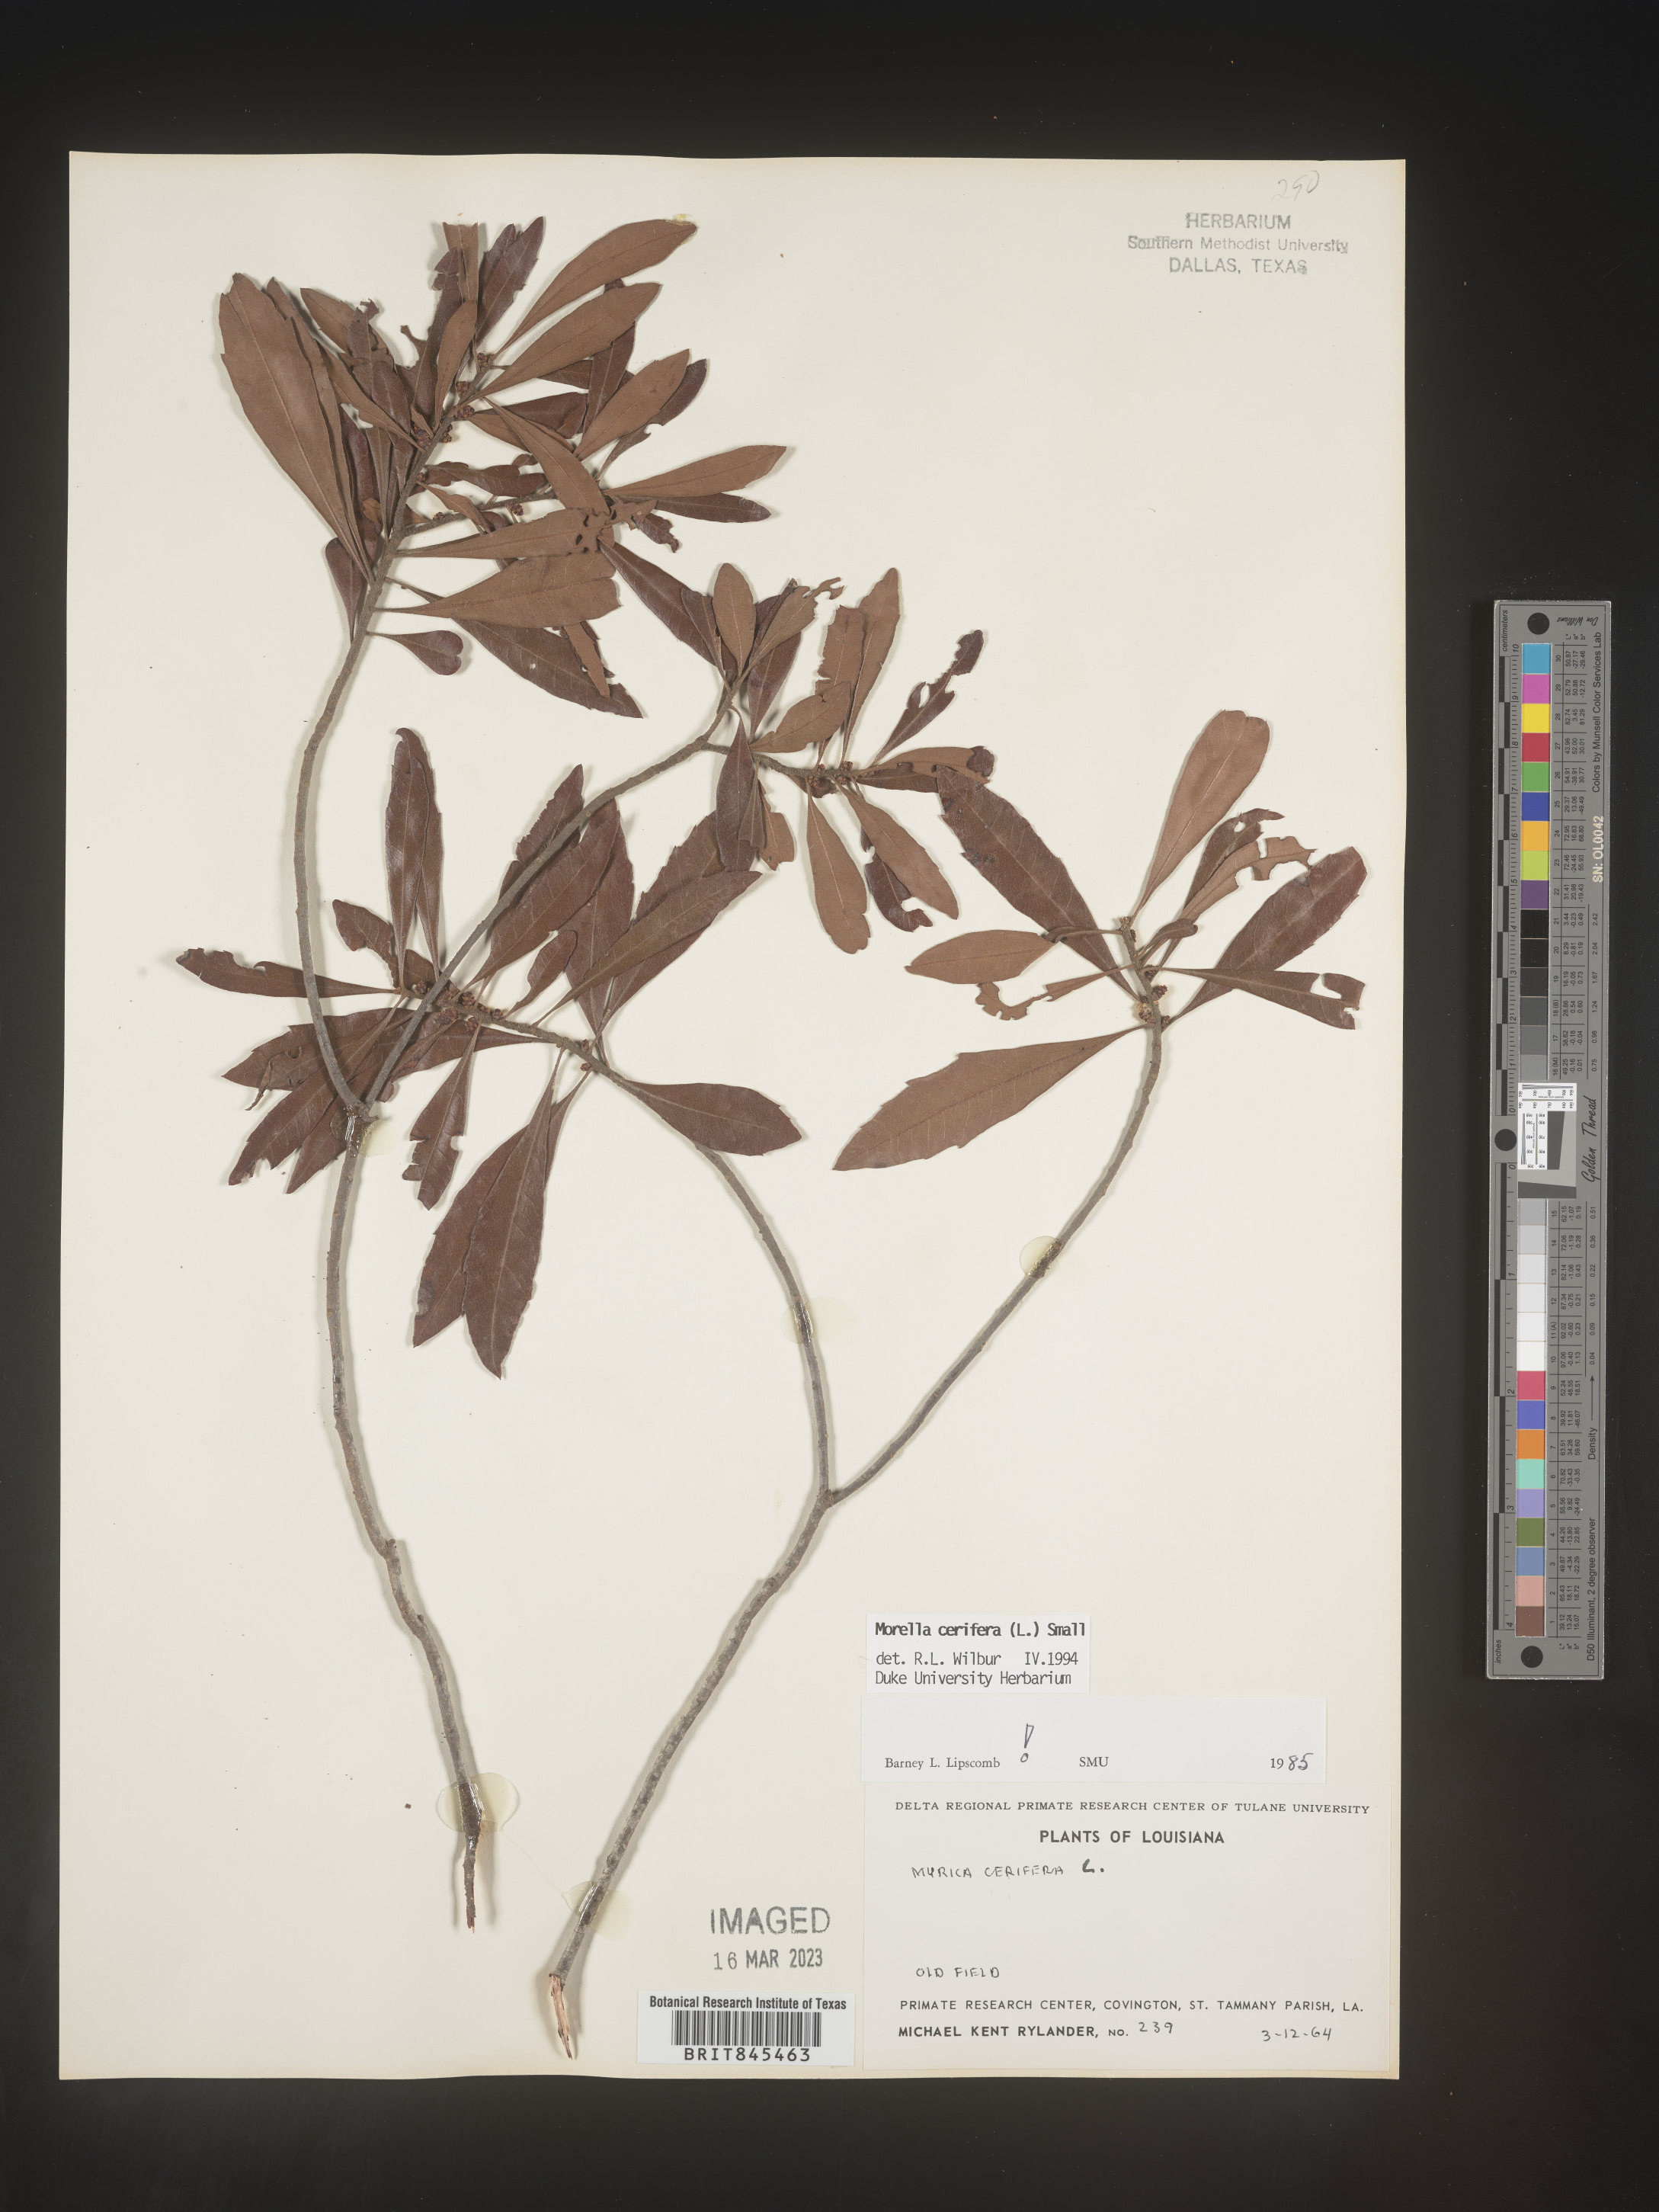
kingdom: Plantae
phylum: Tracheophyta
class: Magnoliopsida
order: Fagales
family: Myricaceae
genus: Morella
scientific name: Morella cerifera
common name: Wax myrtle
